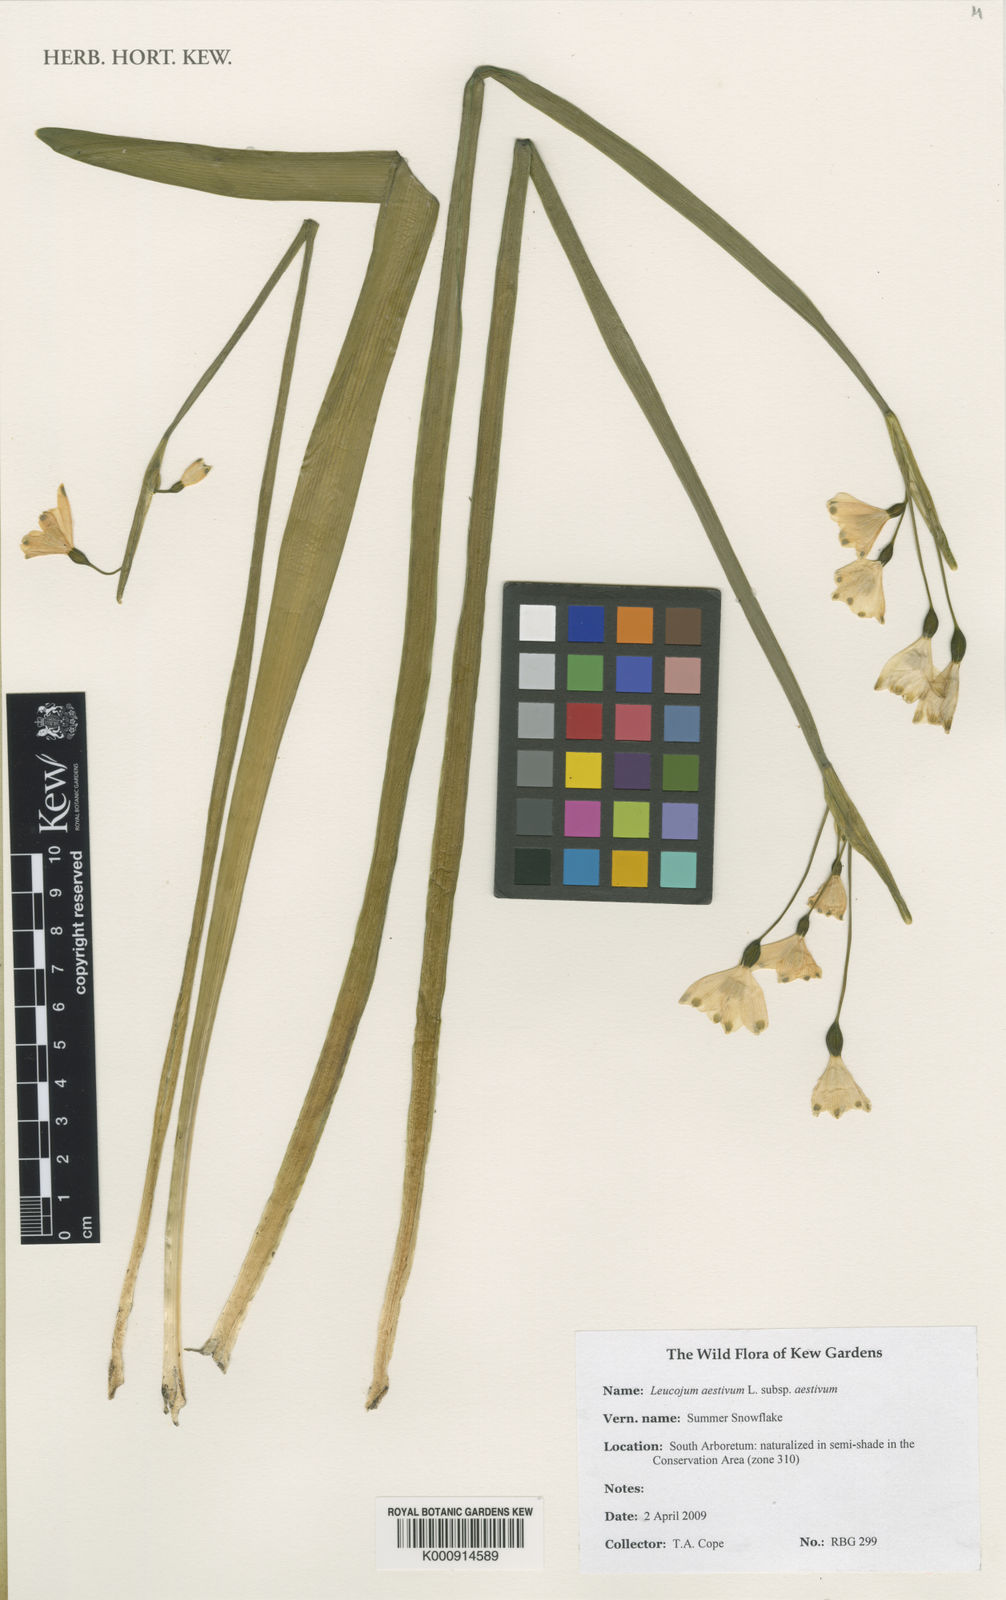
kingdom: Plantae
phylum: Tracheophyta
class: Liliopsida
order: Asparagales
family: Amaryllidaceae
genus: Leucojum
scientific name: Leucojum aestivum
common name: Summer snowflake
